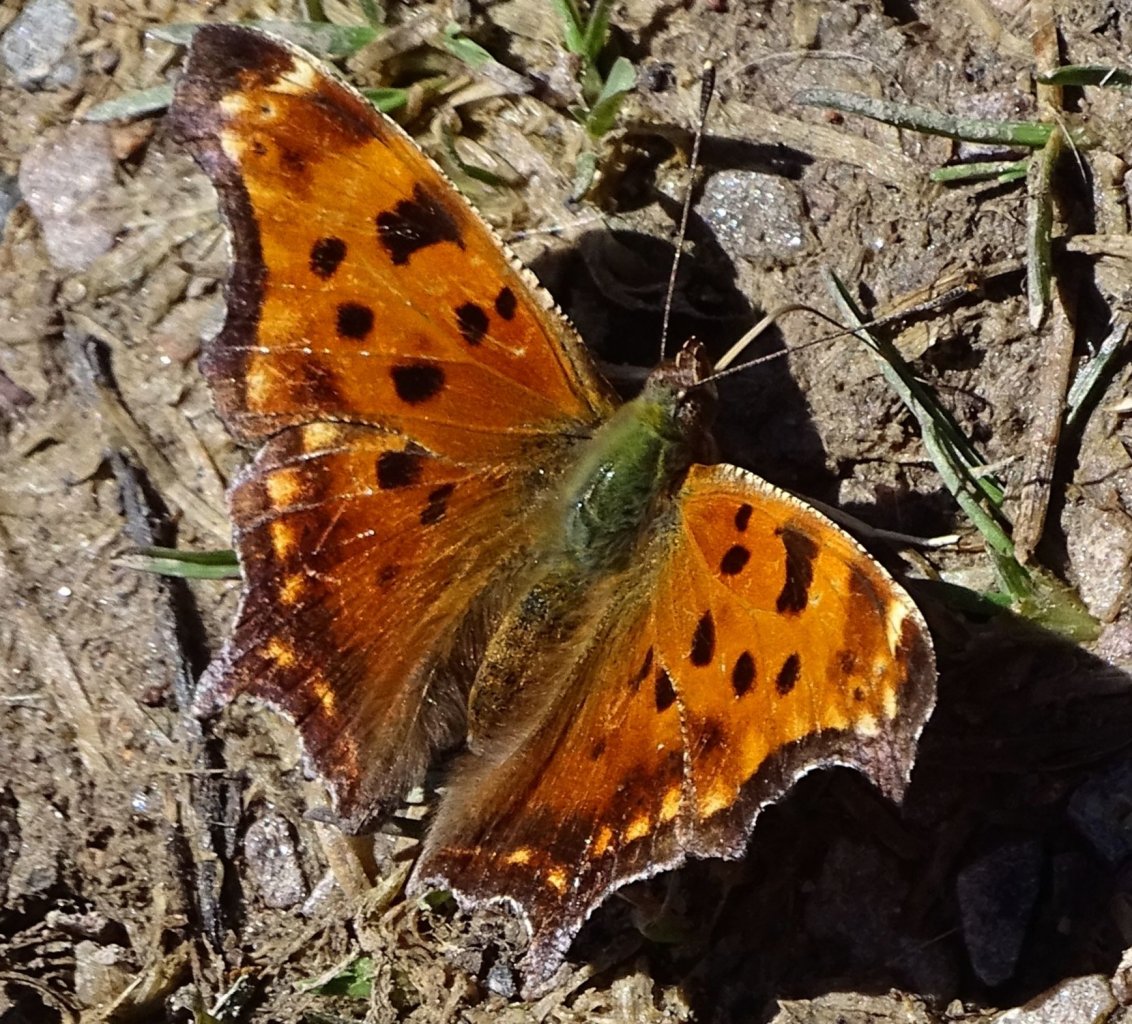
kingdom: Animalia
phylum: Arthropoda
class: Insecta
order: Lepidoptera
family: Nymphalidae
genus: Polygonia
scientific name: Polygonia comma
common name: Eastern Comma
